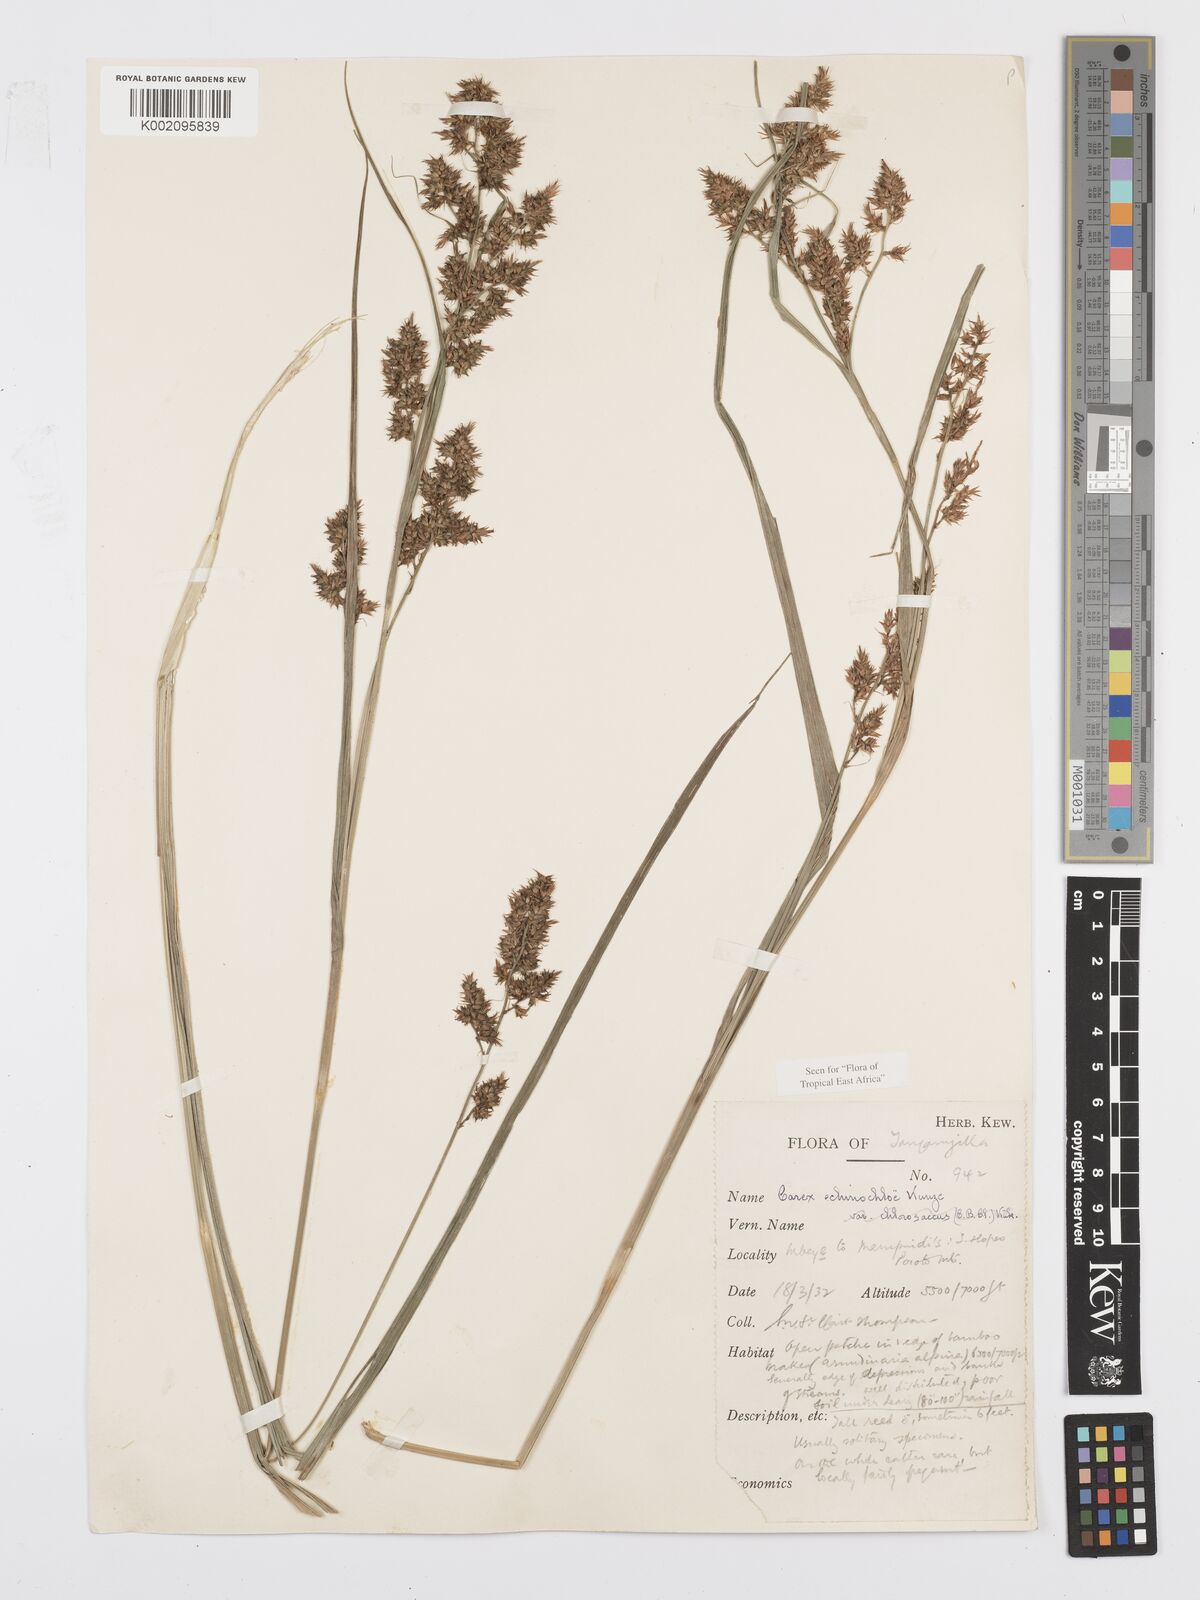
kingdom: Plantae
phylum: Tracheophyta
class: Liliopsida
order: Poales
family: Cyperaceae
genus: Carex
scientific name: Carex echinochloe
